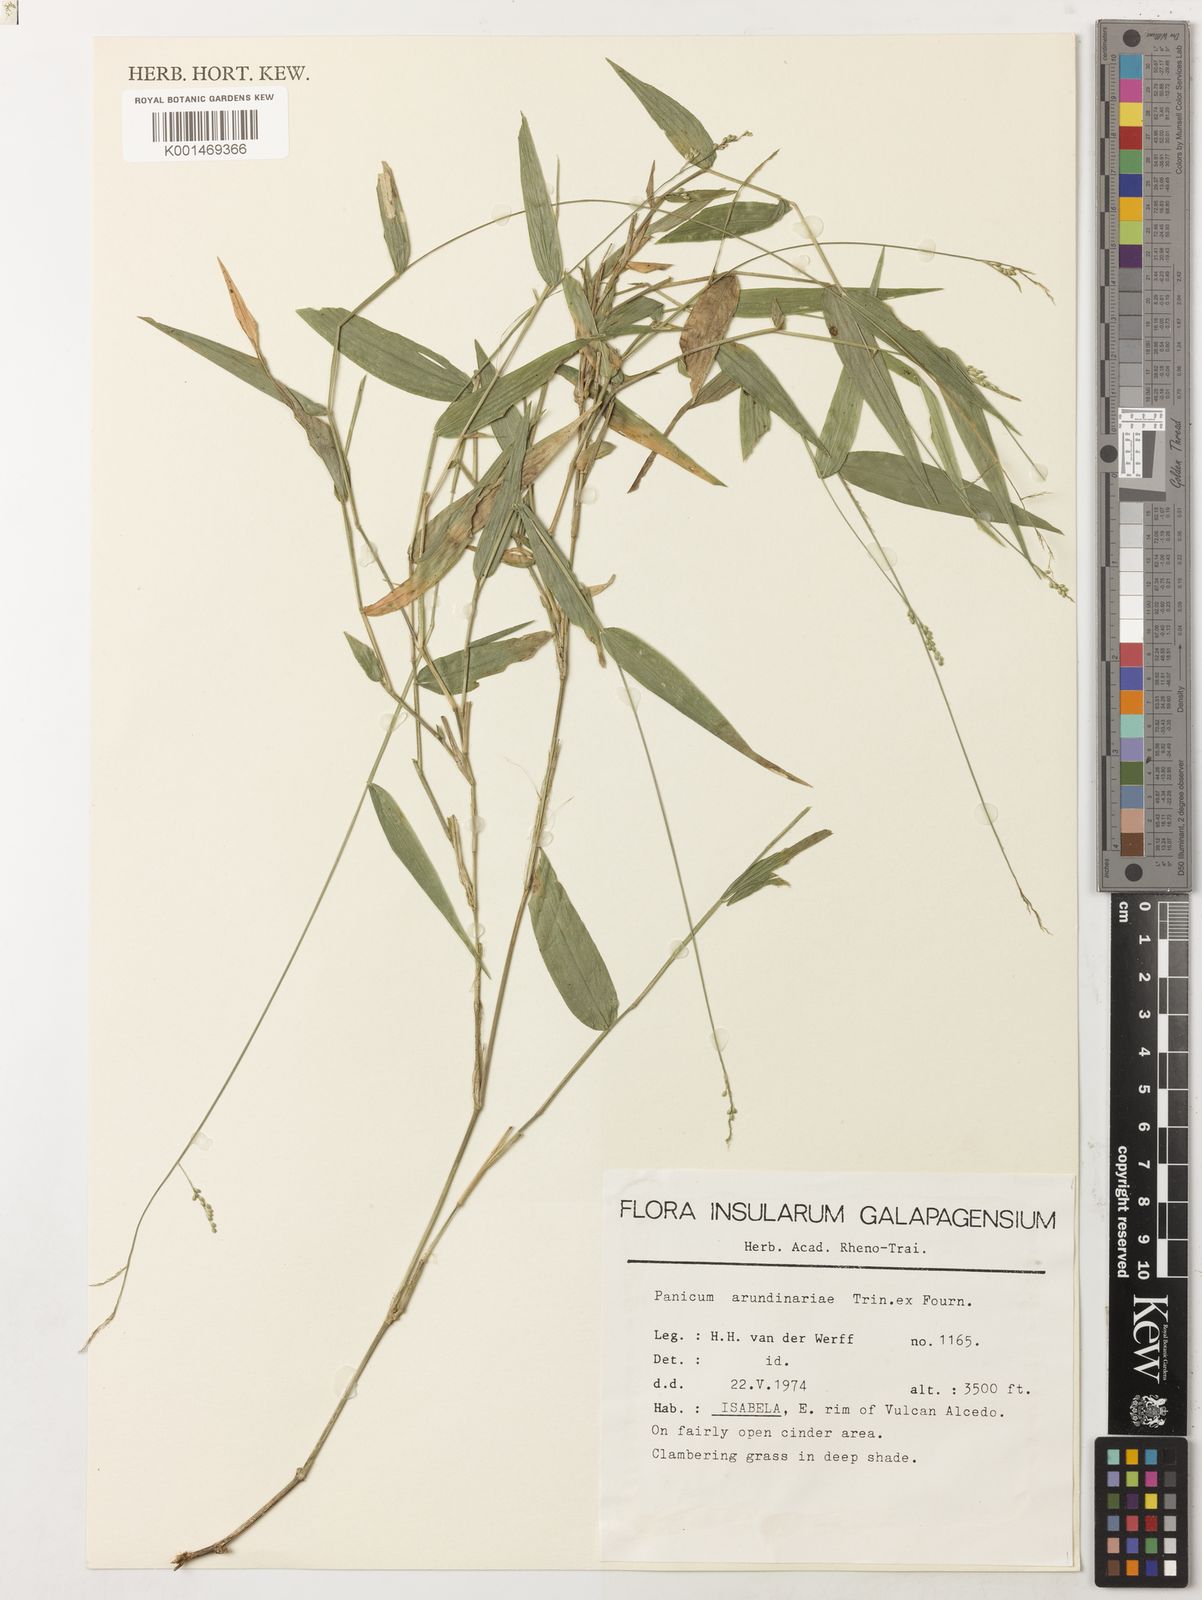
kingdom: Plantae
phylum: Tracheophyta
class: Liliopsida
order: Poales
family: Poaceae
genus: Morronea
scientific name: Morronea arundinariae
